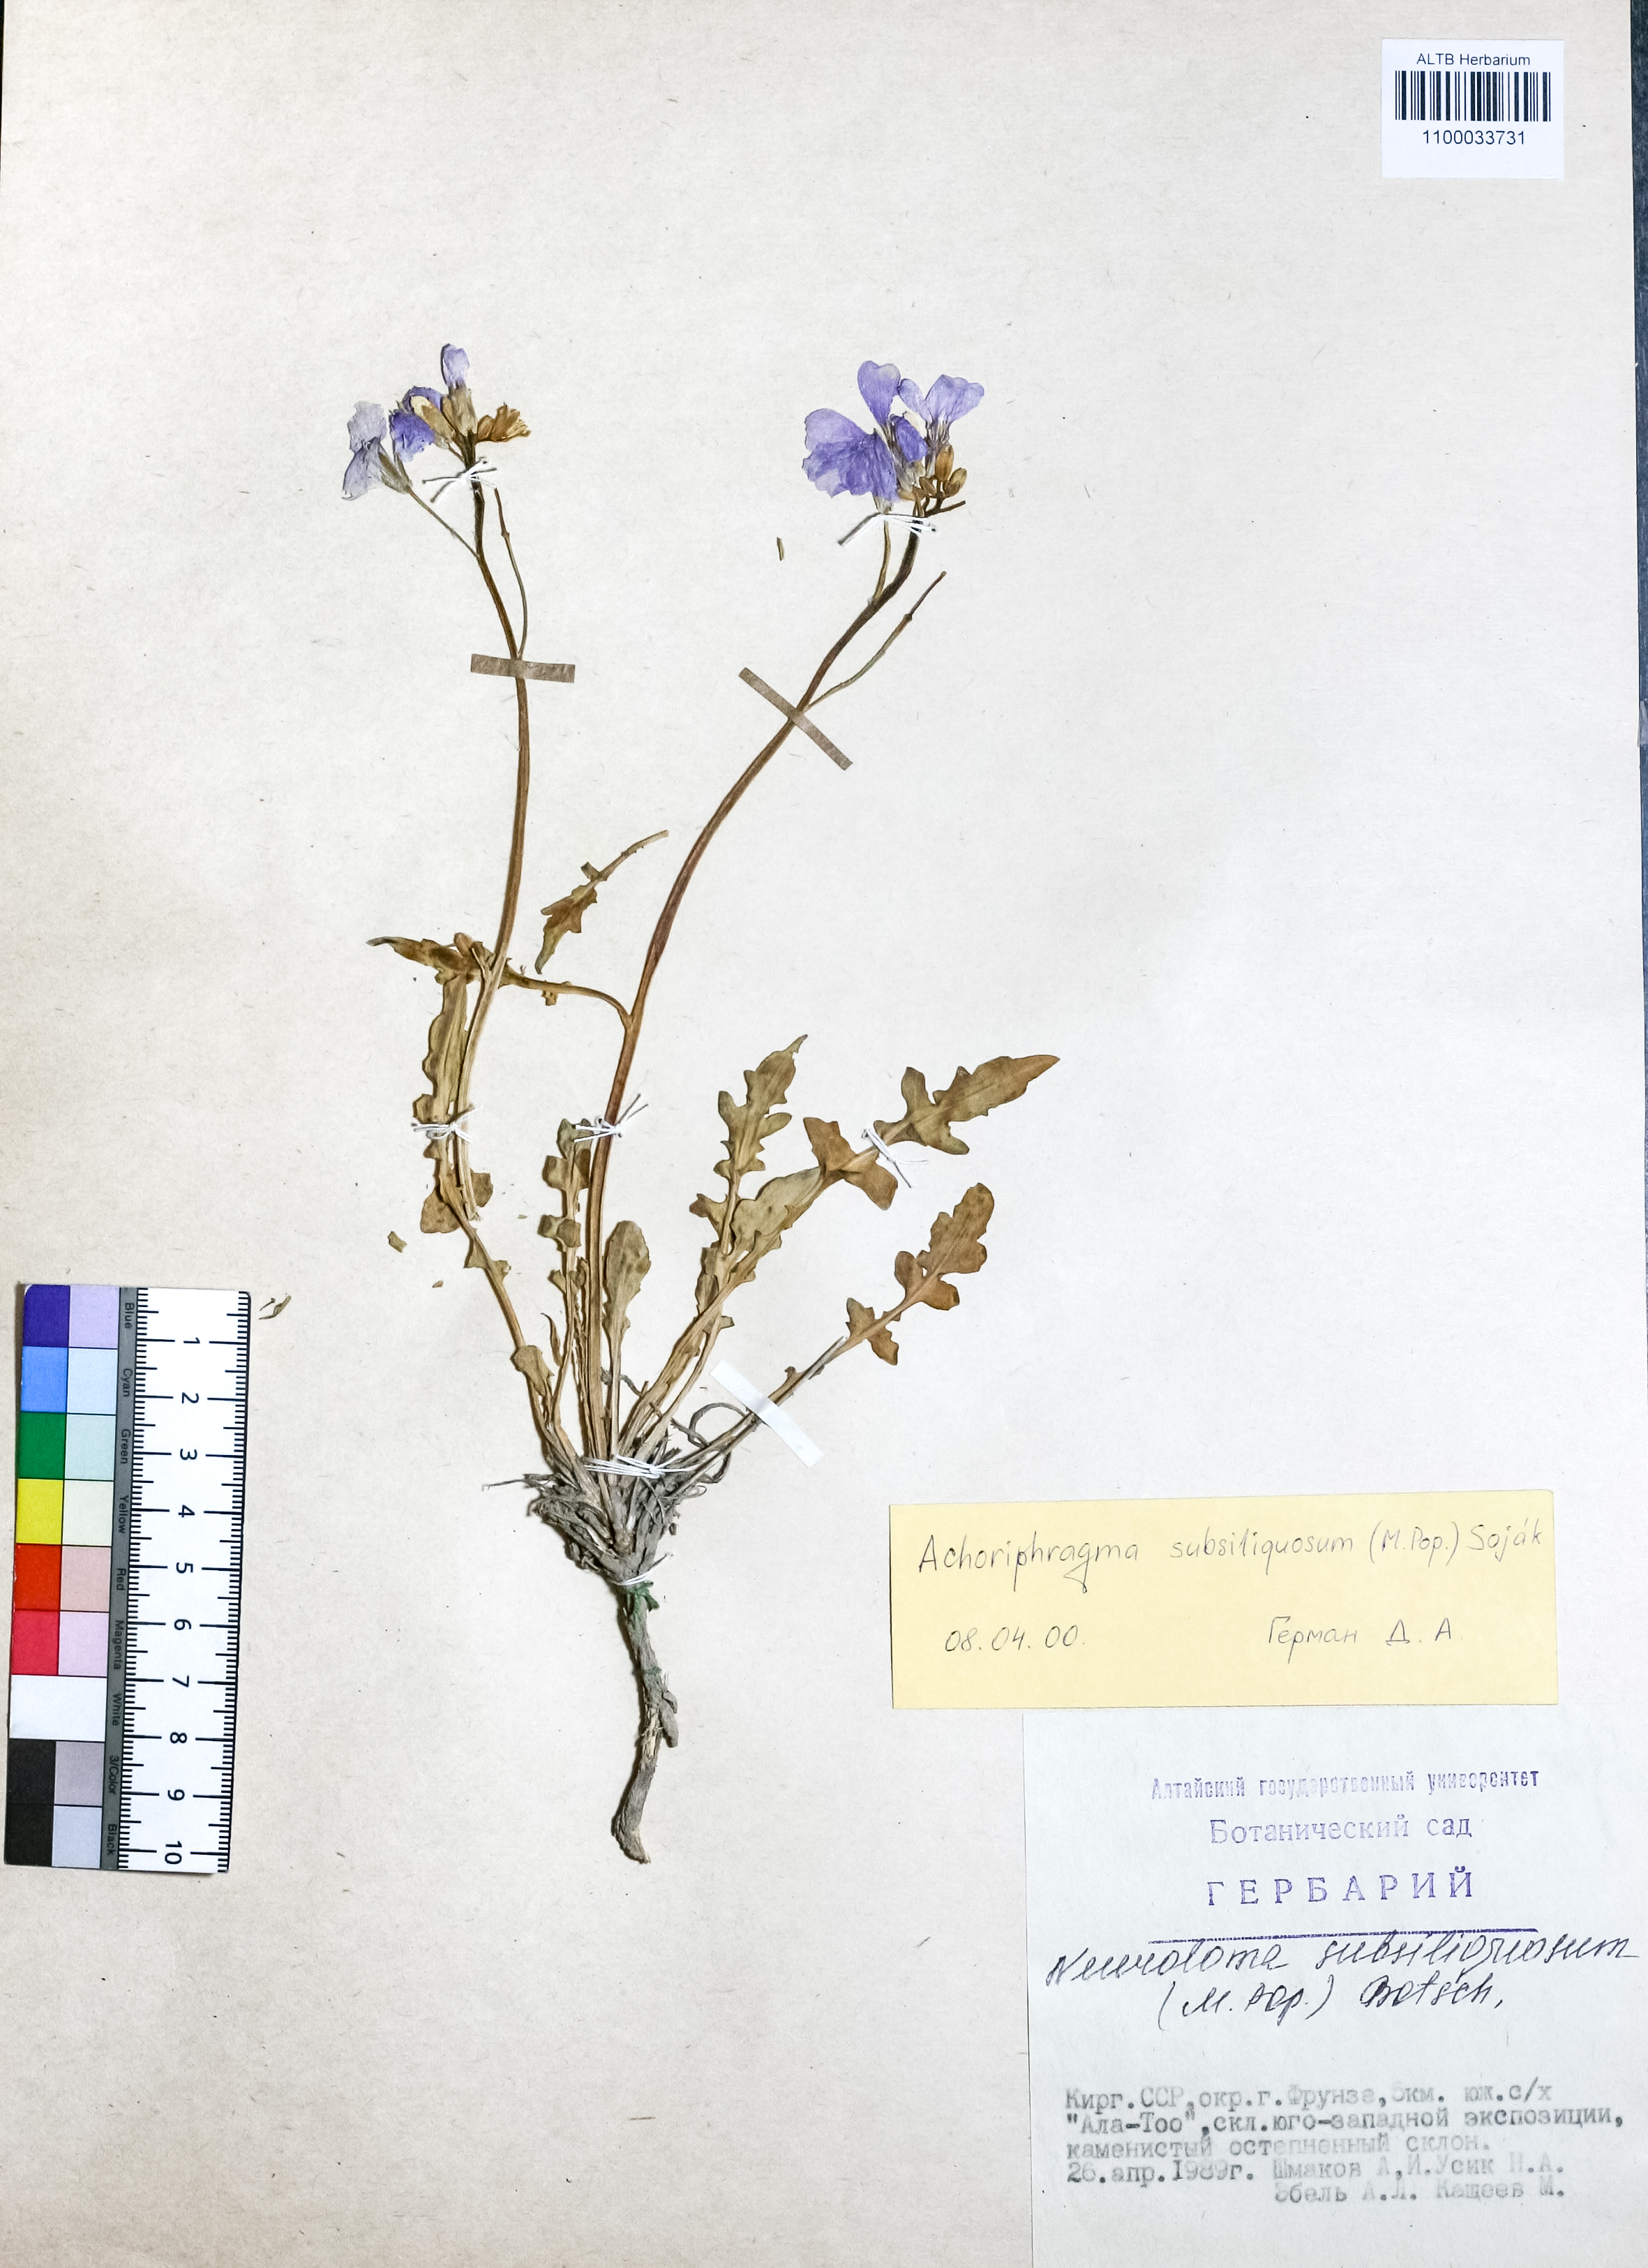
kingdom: Plantae
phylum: Tracheophyta
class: Magnoliopsida
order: Brassicales
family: Brassicaceae
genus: Parrya
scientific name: Parrya subsiliquosa
